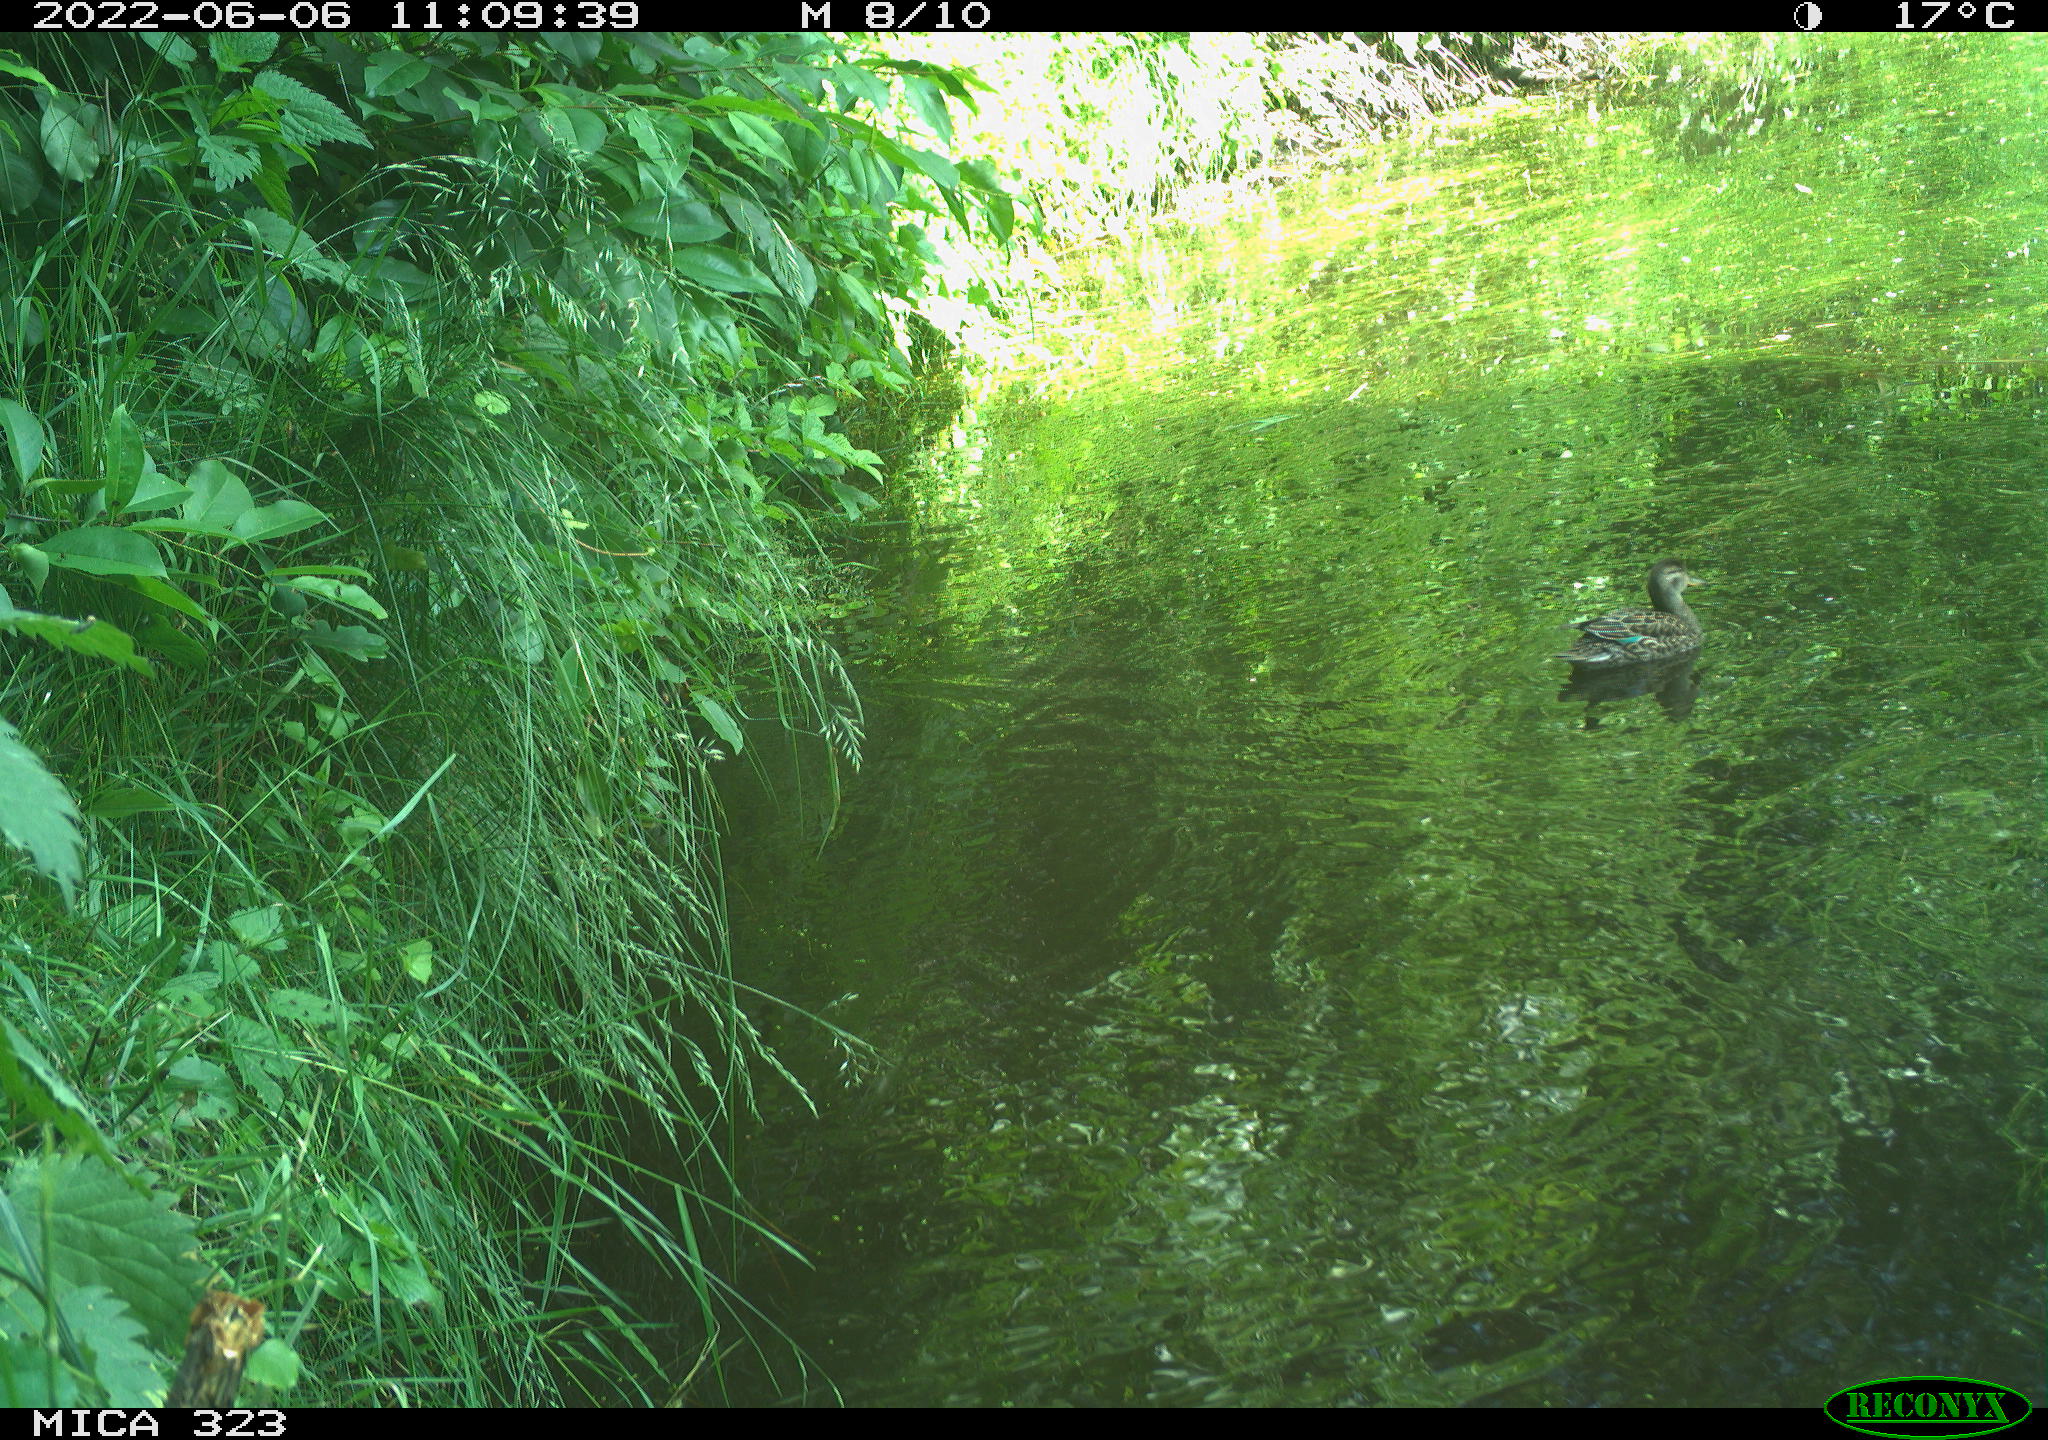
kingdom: Animalia
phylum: Chordata
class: Aves
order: Anseriformes
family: Anatidae
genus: Anas
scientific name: Anas platyrhynchos
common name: Mallard
